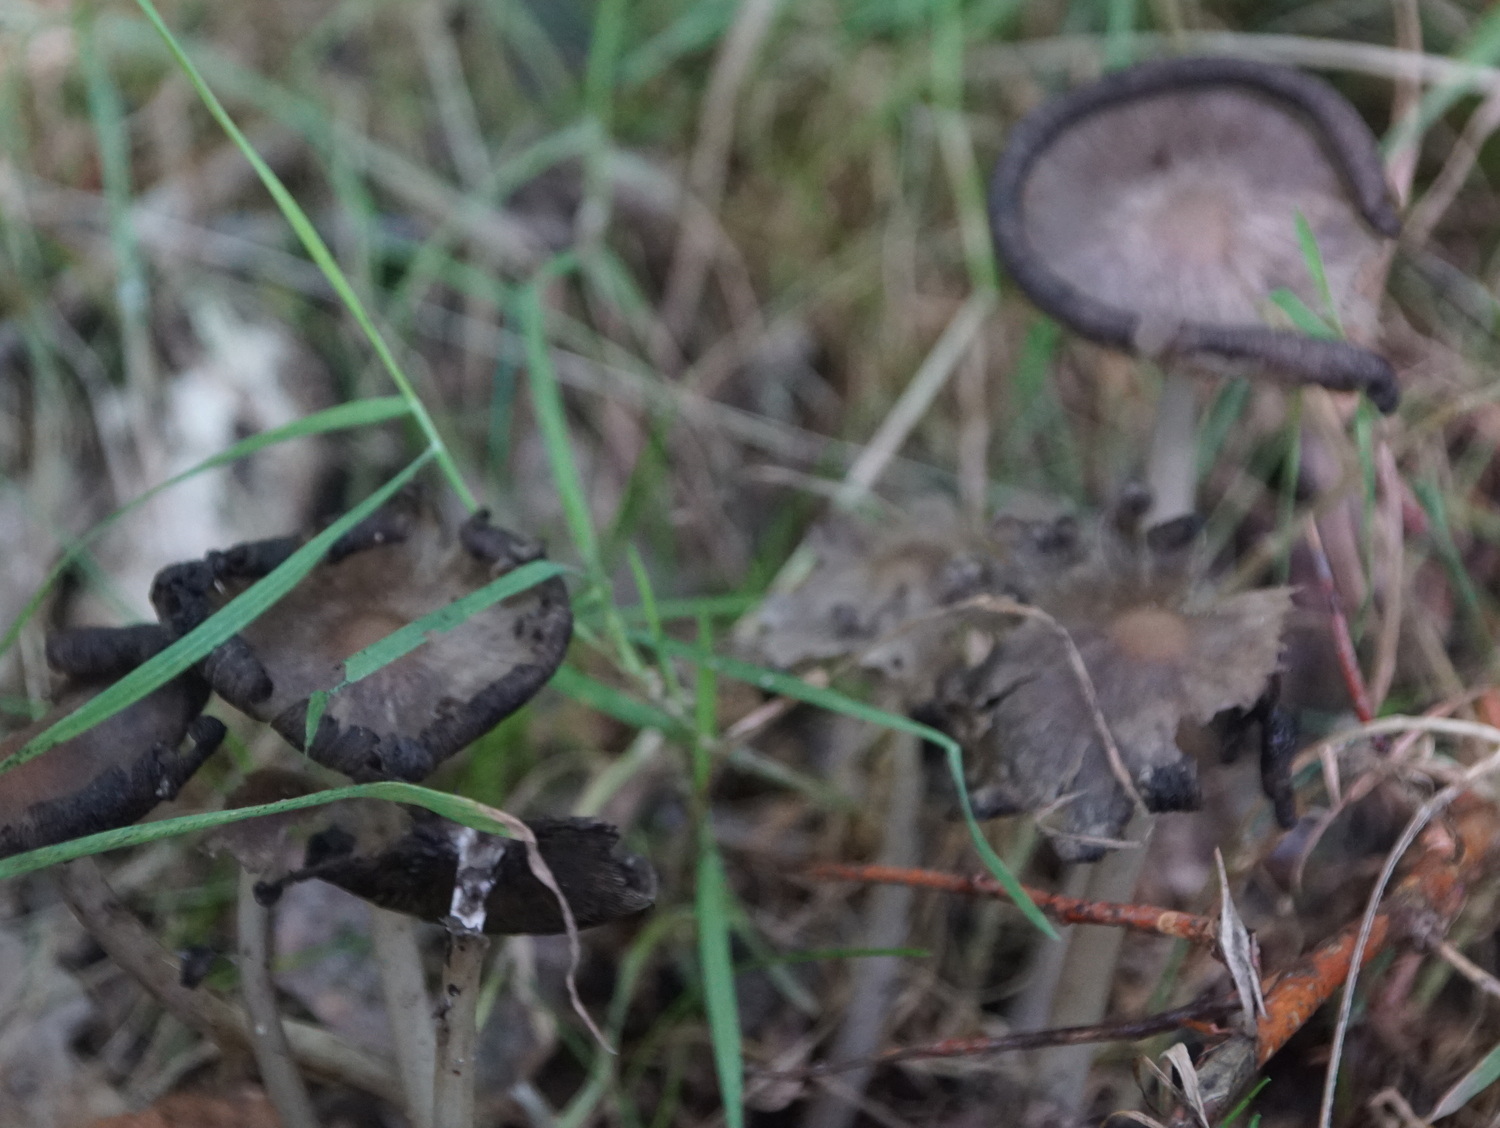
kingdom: Fungi
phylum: Basidiomycota
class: Agaricomycetes
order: Agaricales
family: Psathyrellaceae
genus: Coprinopsis
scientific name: Coprinopsis atramentaria
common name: almindelig blækhat
